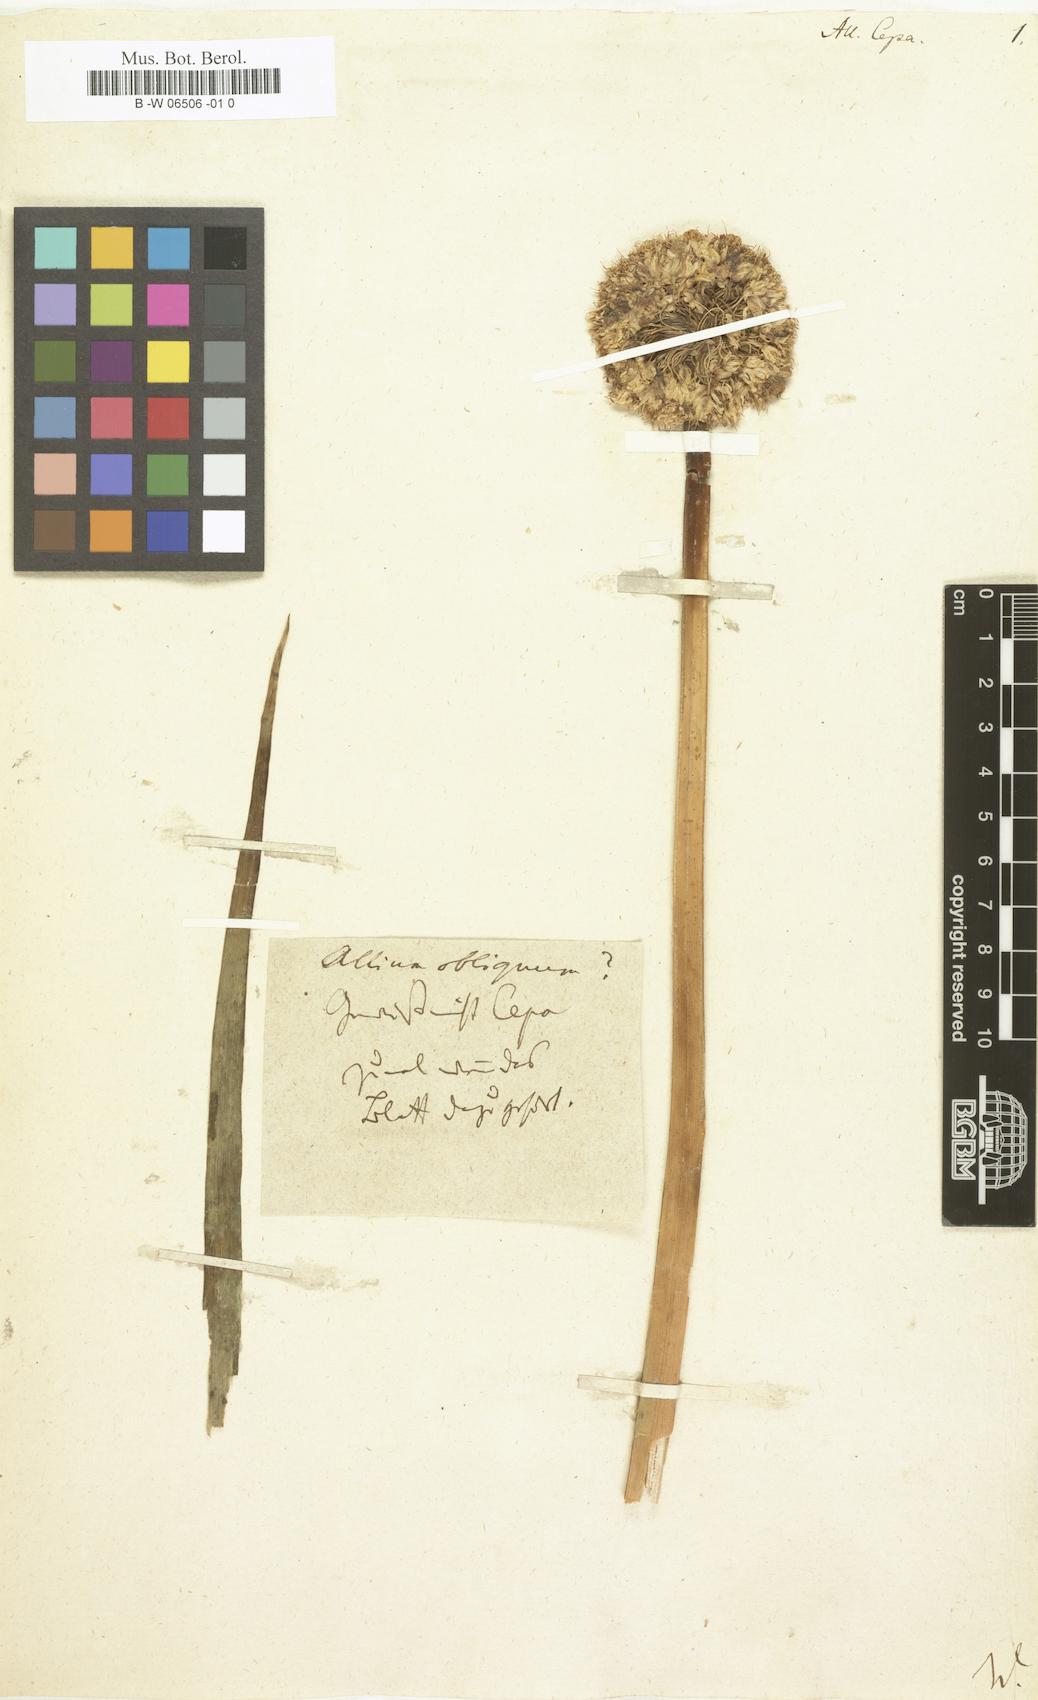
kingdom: Plantae
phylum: Tracheophyta
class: Liliopsida
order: Asparagales
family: Amaryllidaceae
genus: Allium
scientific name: Allium cepa
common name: Onion
